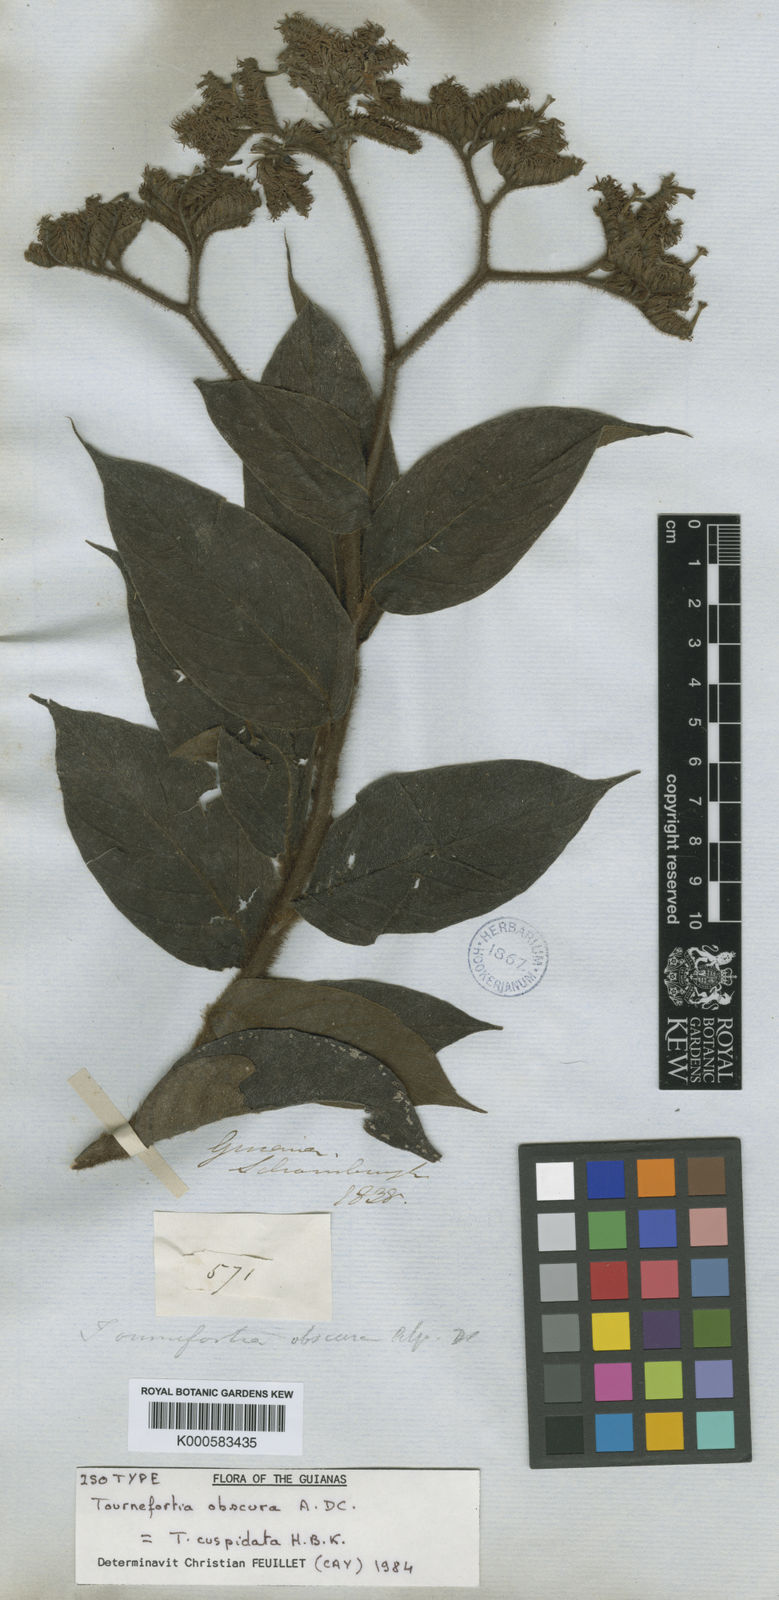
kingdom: Plantae
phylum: Tracheophyta
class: Magnoliopsida
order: Boraginales
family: Heliotropiaceae
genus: Heliotropium
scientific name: Heliotropium cuspidatum
